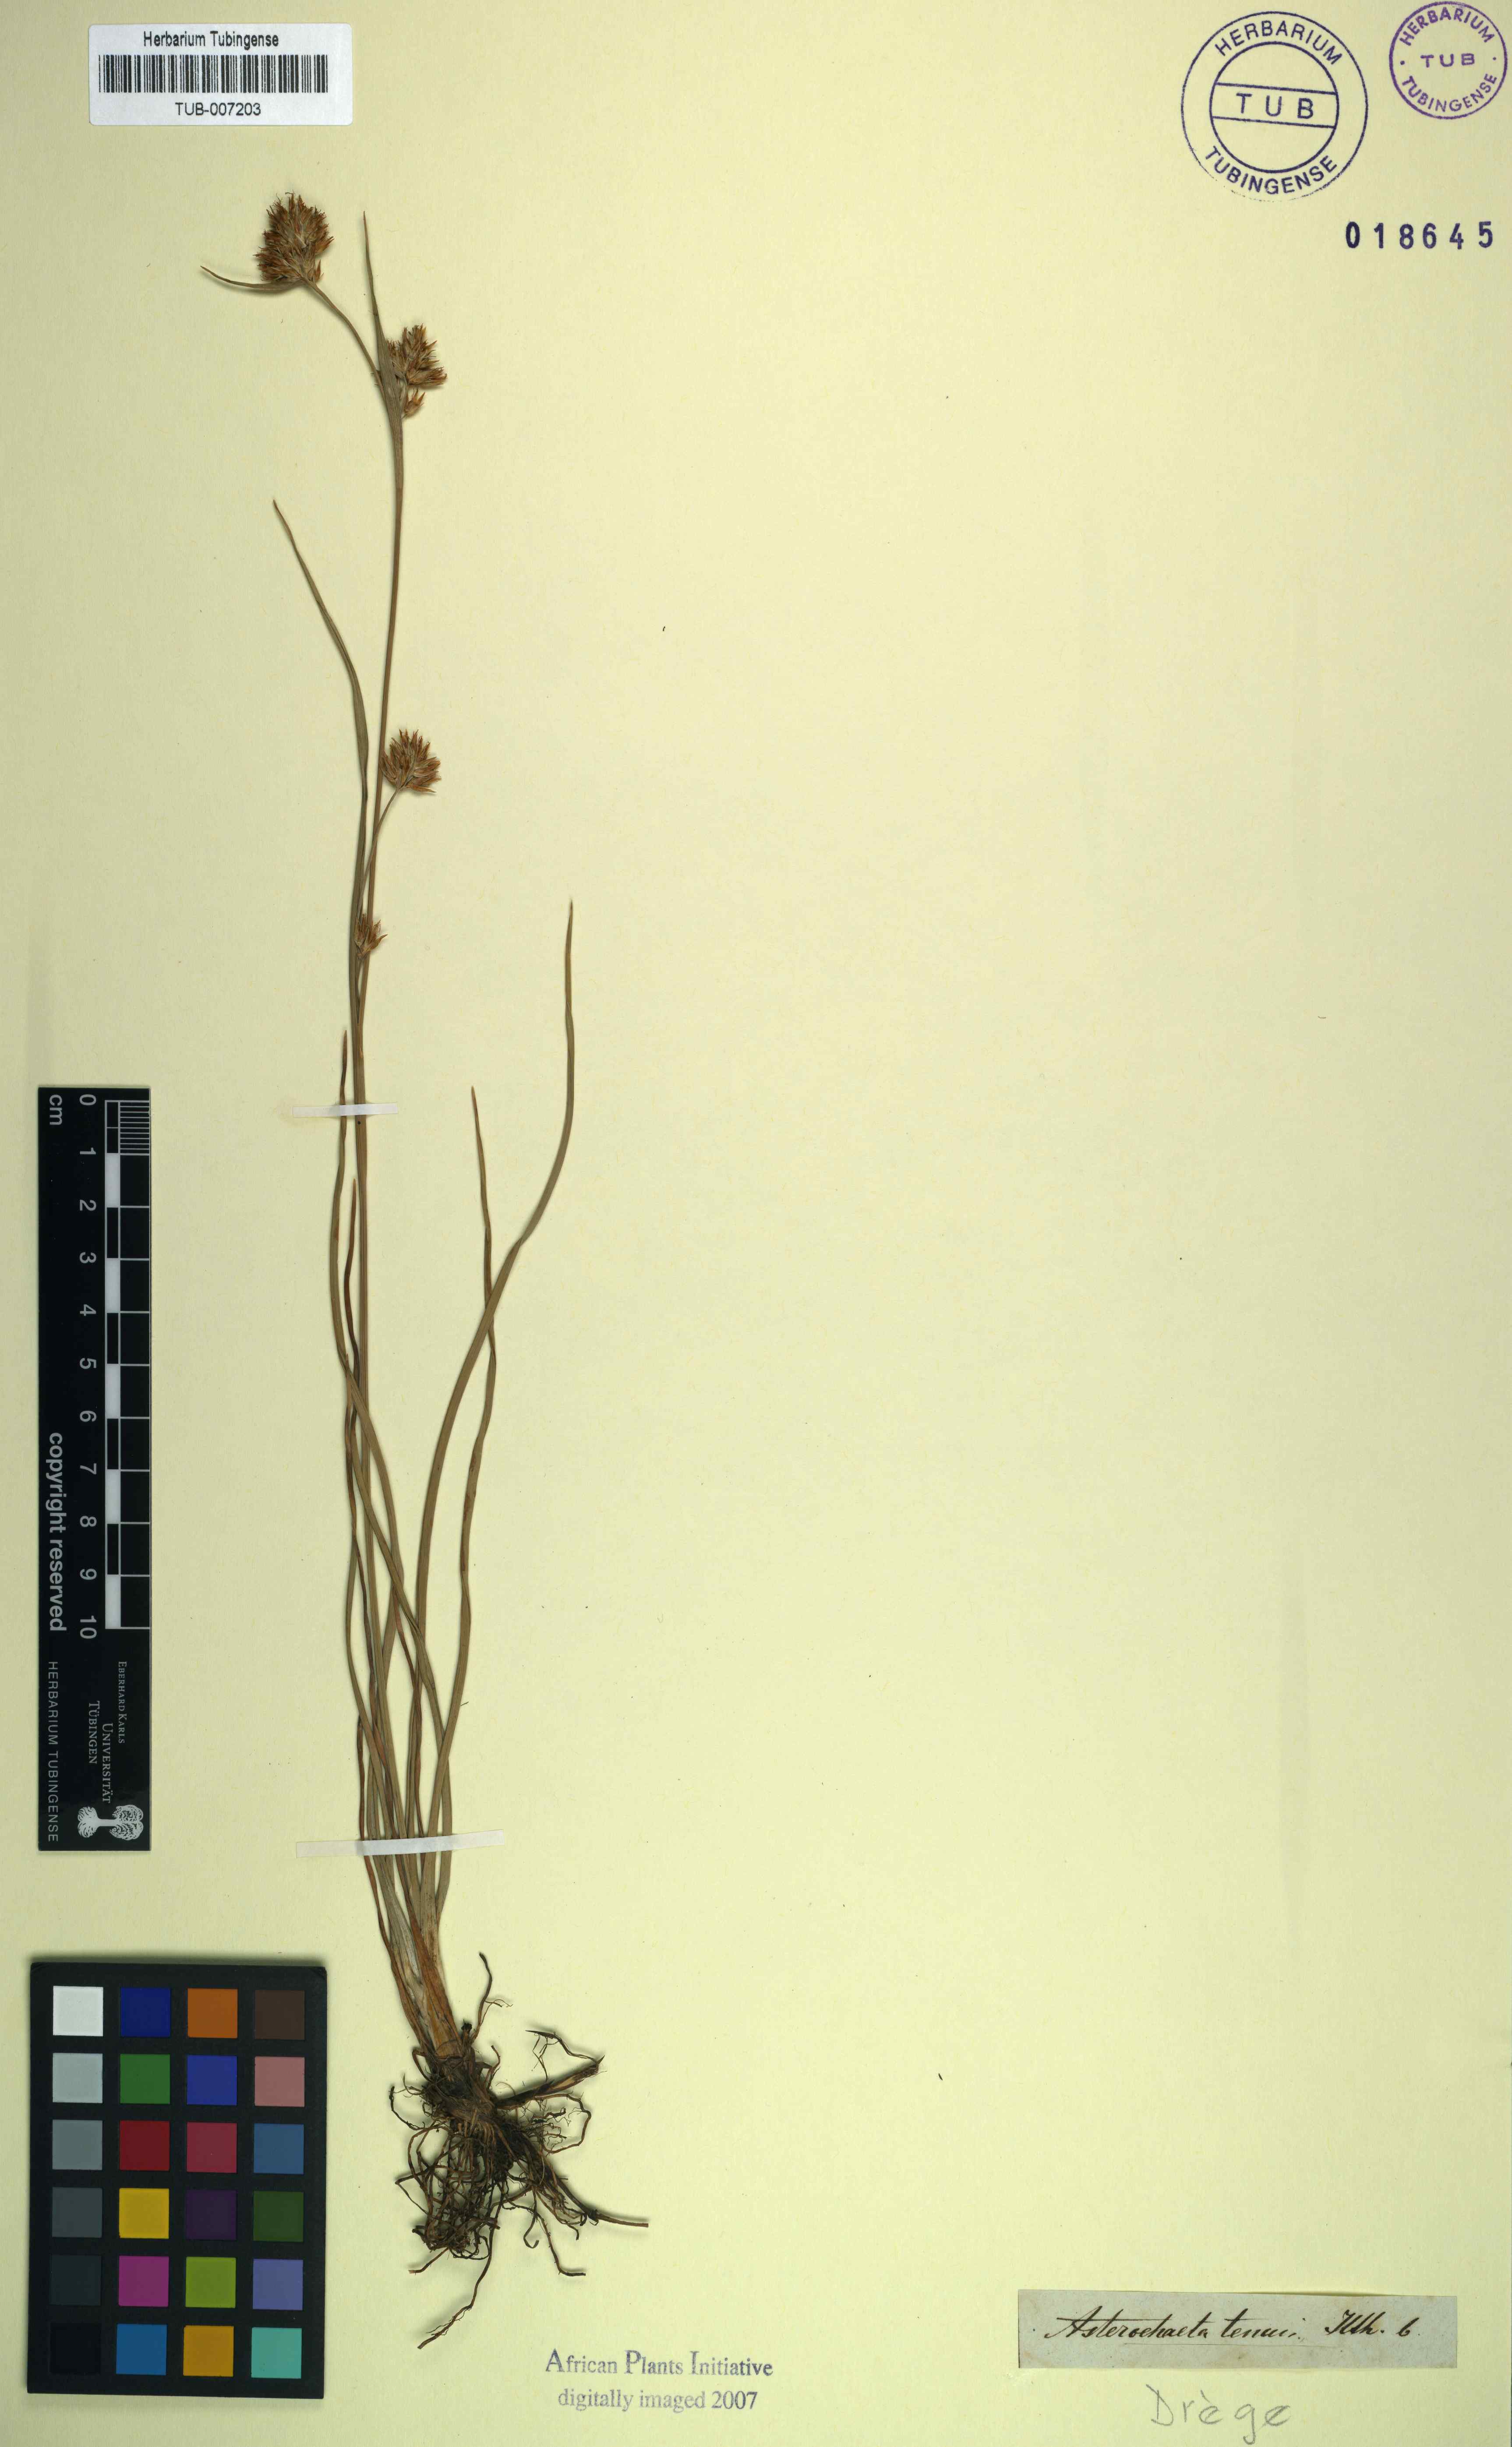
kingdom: Plantae
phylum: Tracheophyta
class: Liliopsida
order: Poales
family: Cyperaceae
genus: Carpha
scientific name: Carpha capitellata
